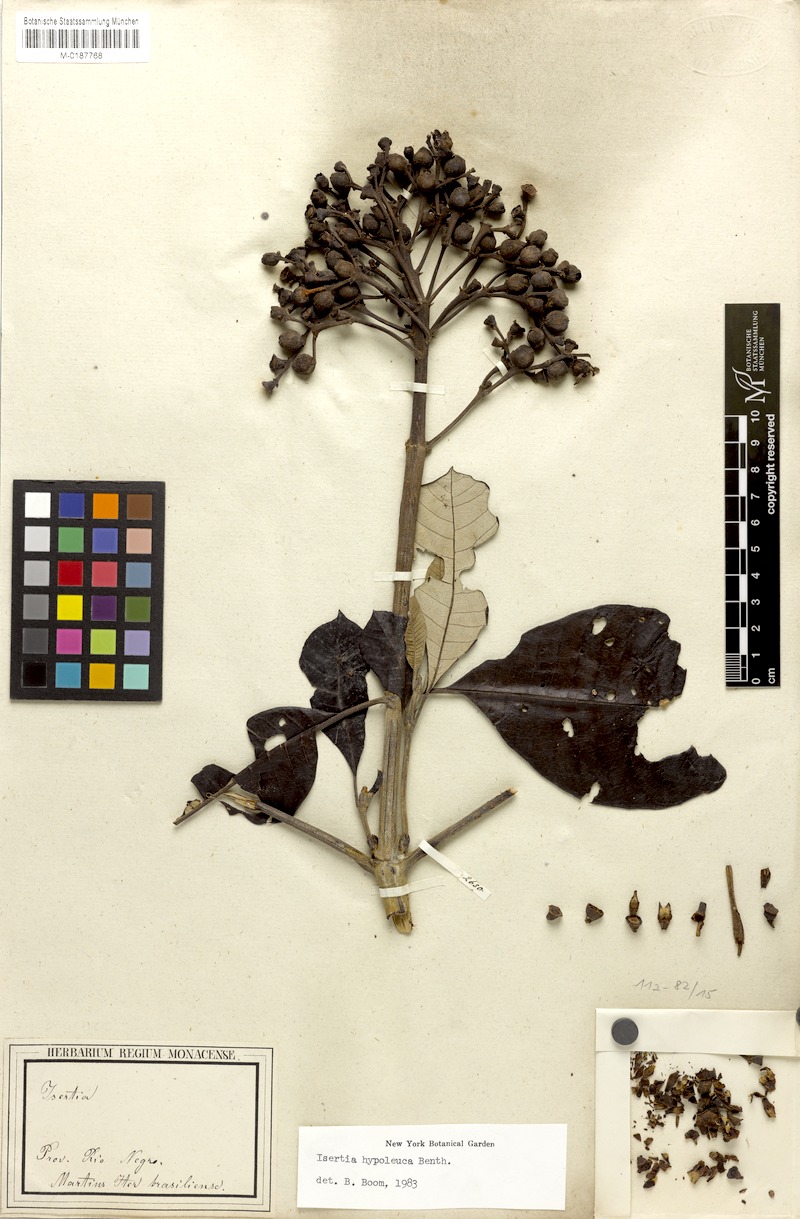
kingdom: Plantae
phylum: Tracheophyta
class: Magnoliopsida
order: Gentianales
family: Rubiaceae
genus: Isertia
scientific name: Isertia hypoleuca
